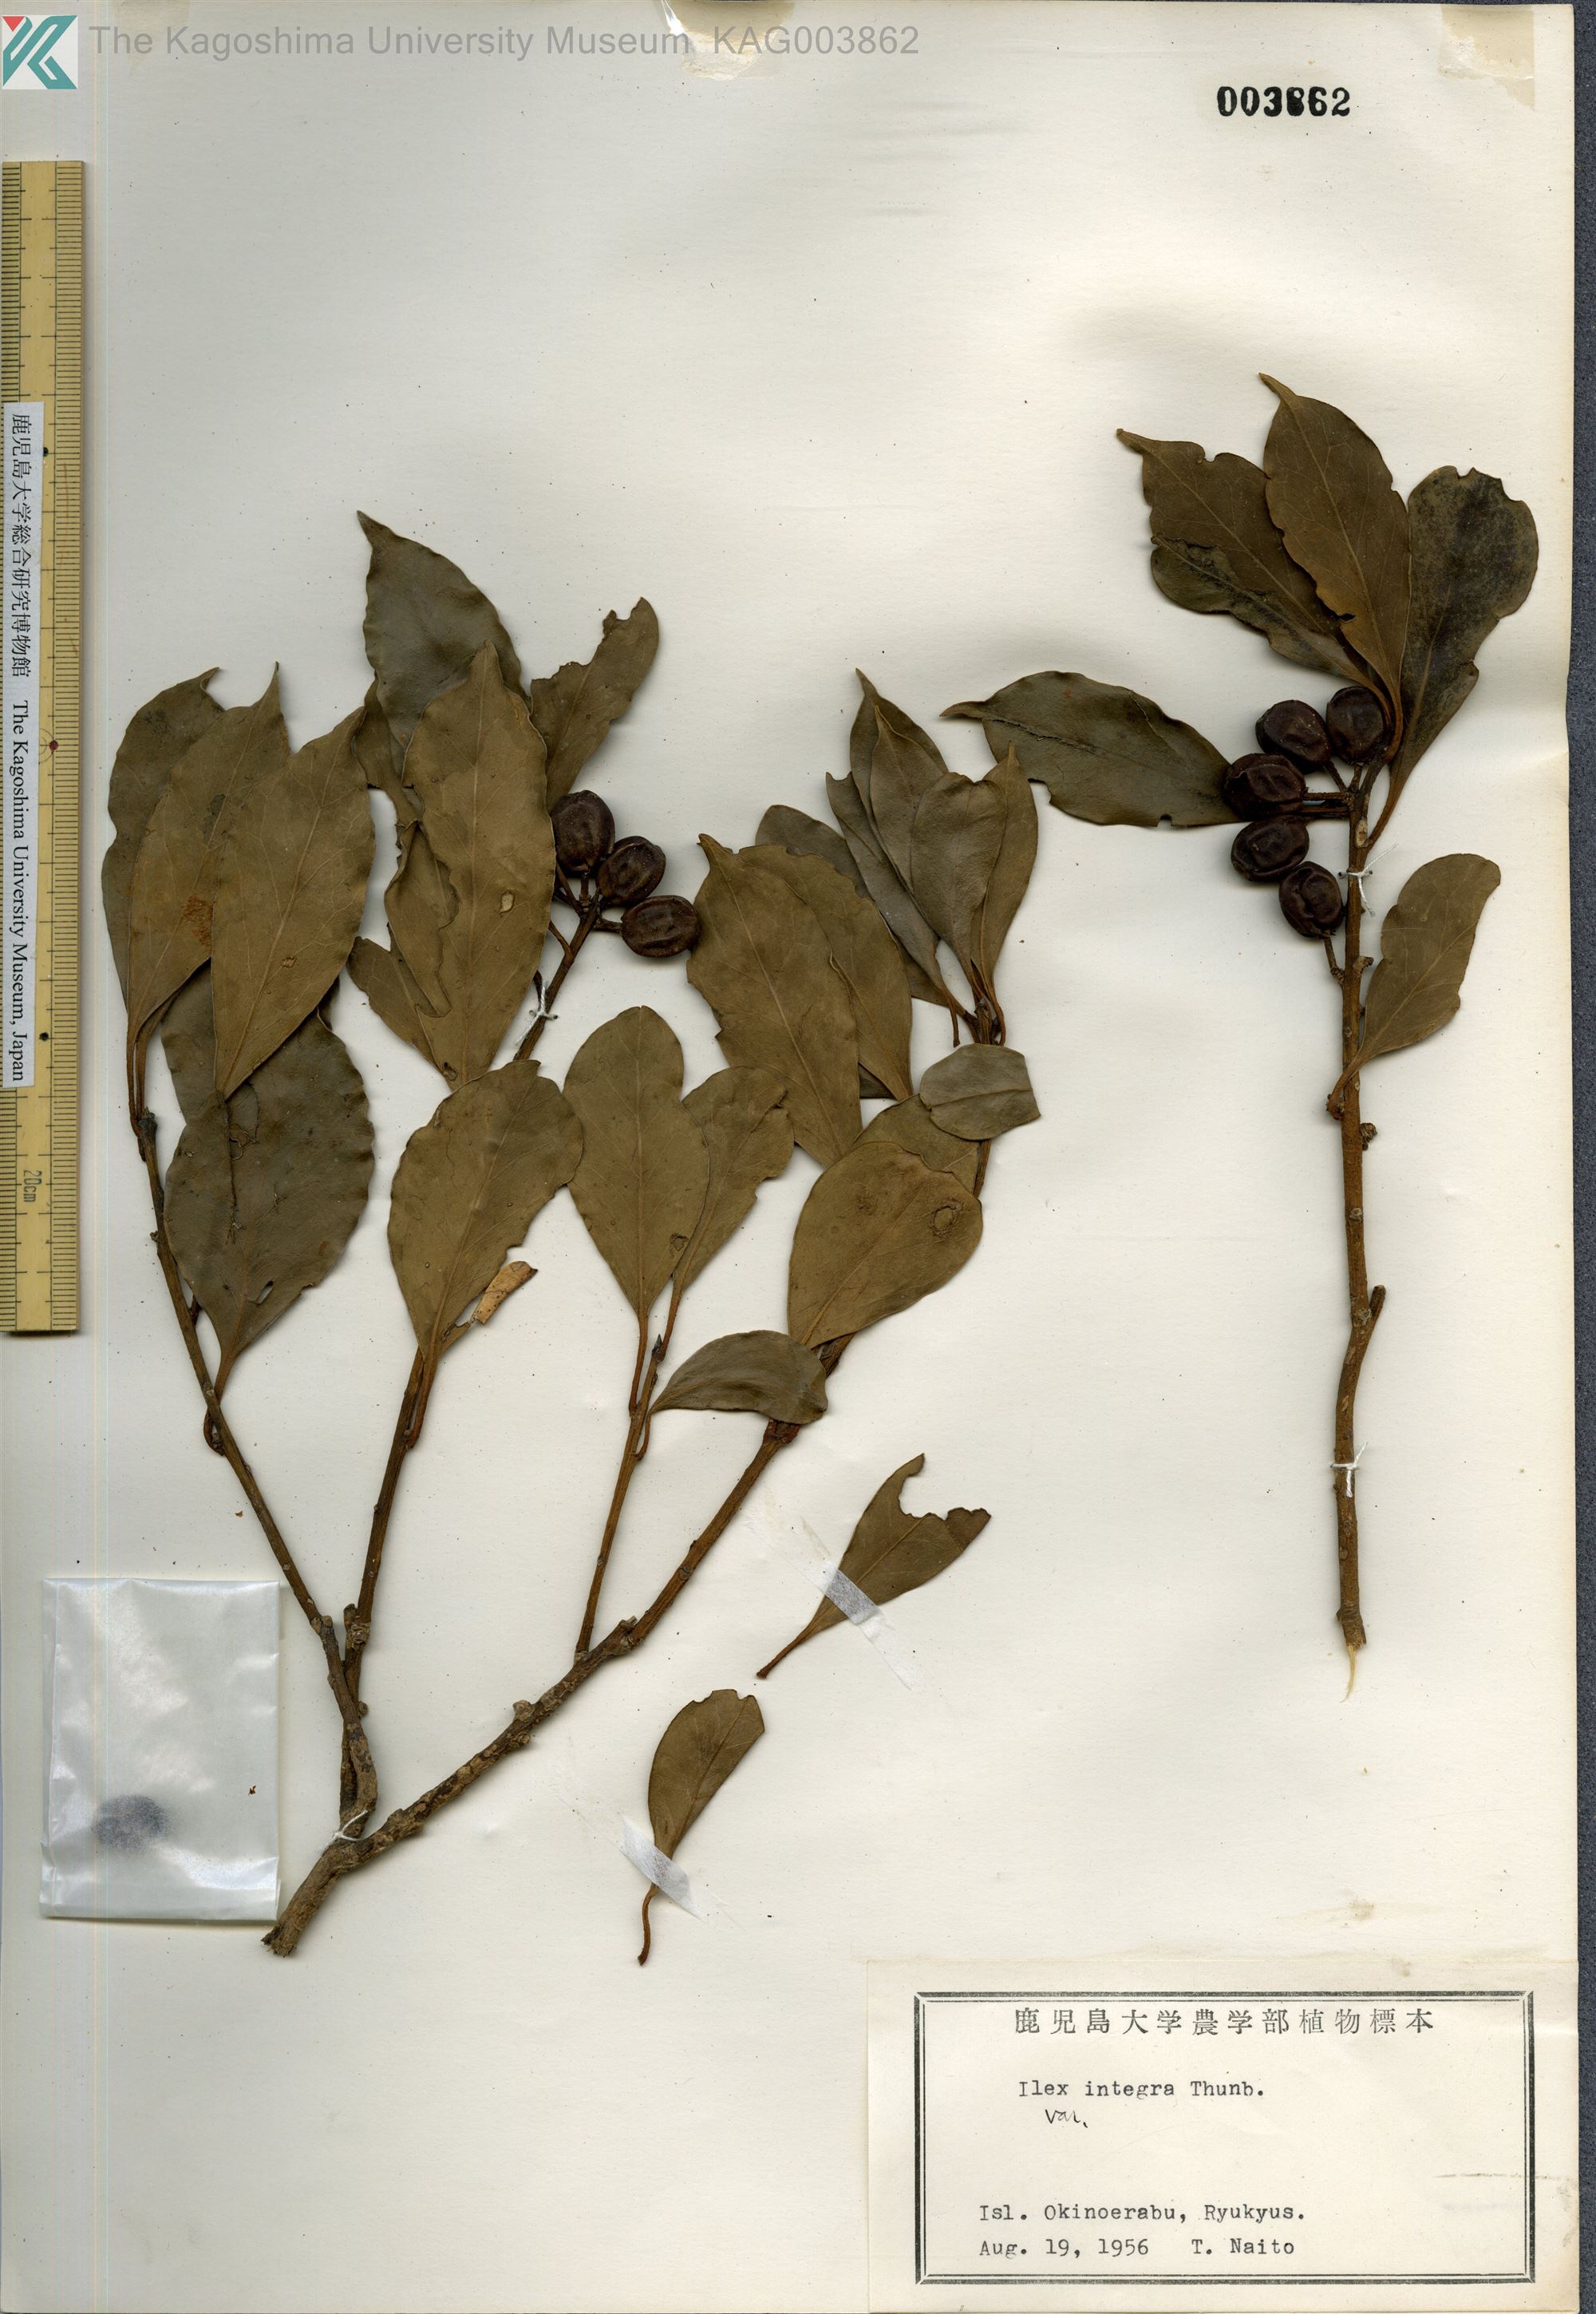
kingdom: Plantae
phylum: Tracheophyta
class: Magnoliopsida
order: Aquifoliales
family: Aquifoliaceae
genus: Ilex
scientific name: Ilex integra
